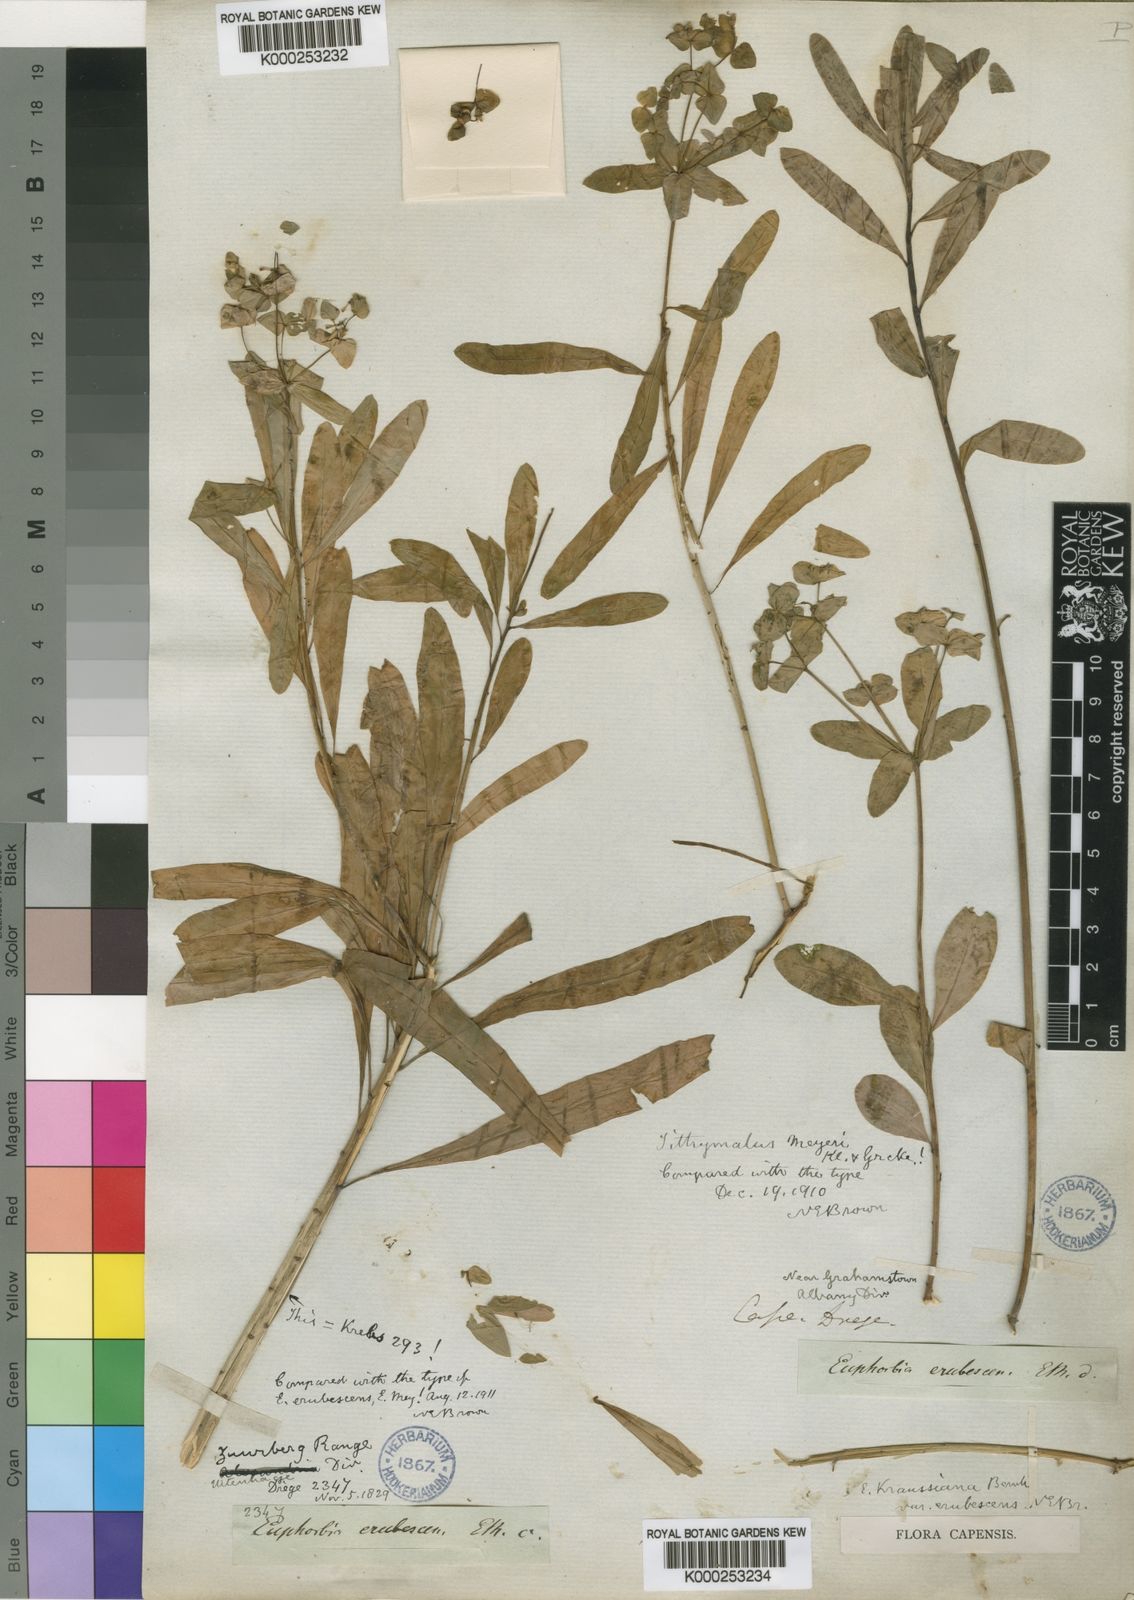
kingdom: Plantae
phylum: Tracheophyta
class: Magnoliopsida
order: Malpighiales
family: Euphorbiaceae
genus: Euphorbia
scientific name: Euphorbia kraussiana
